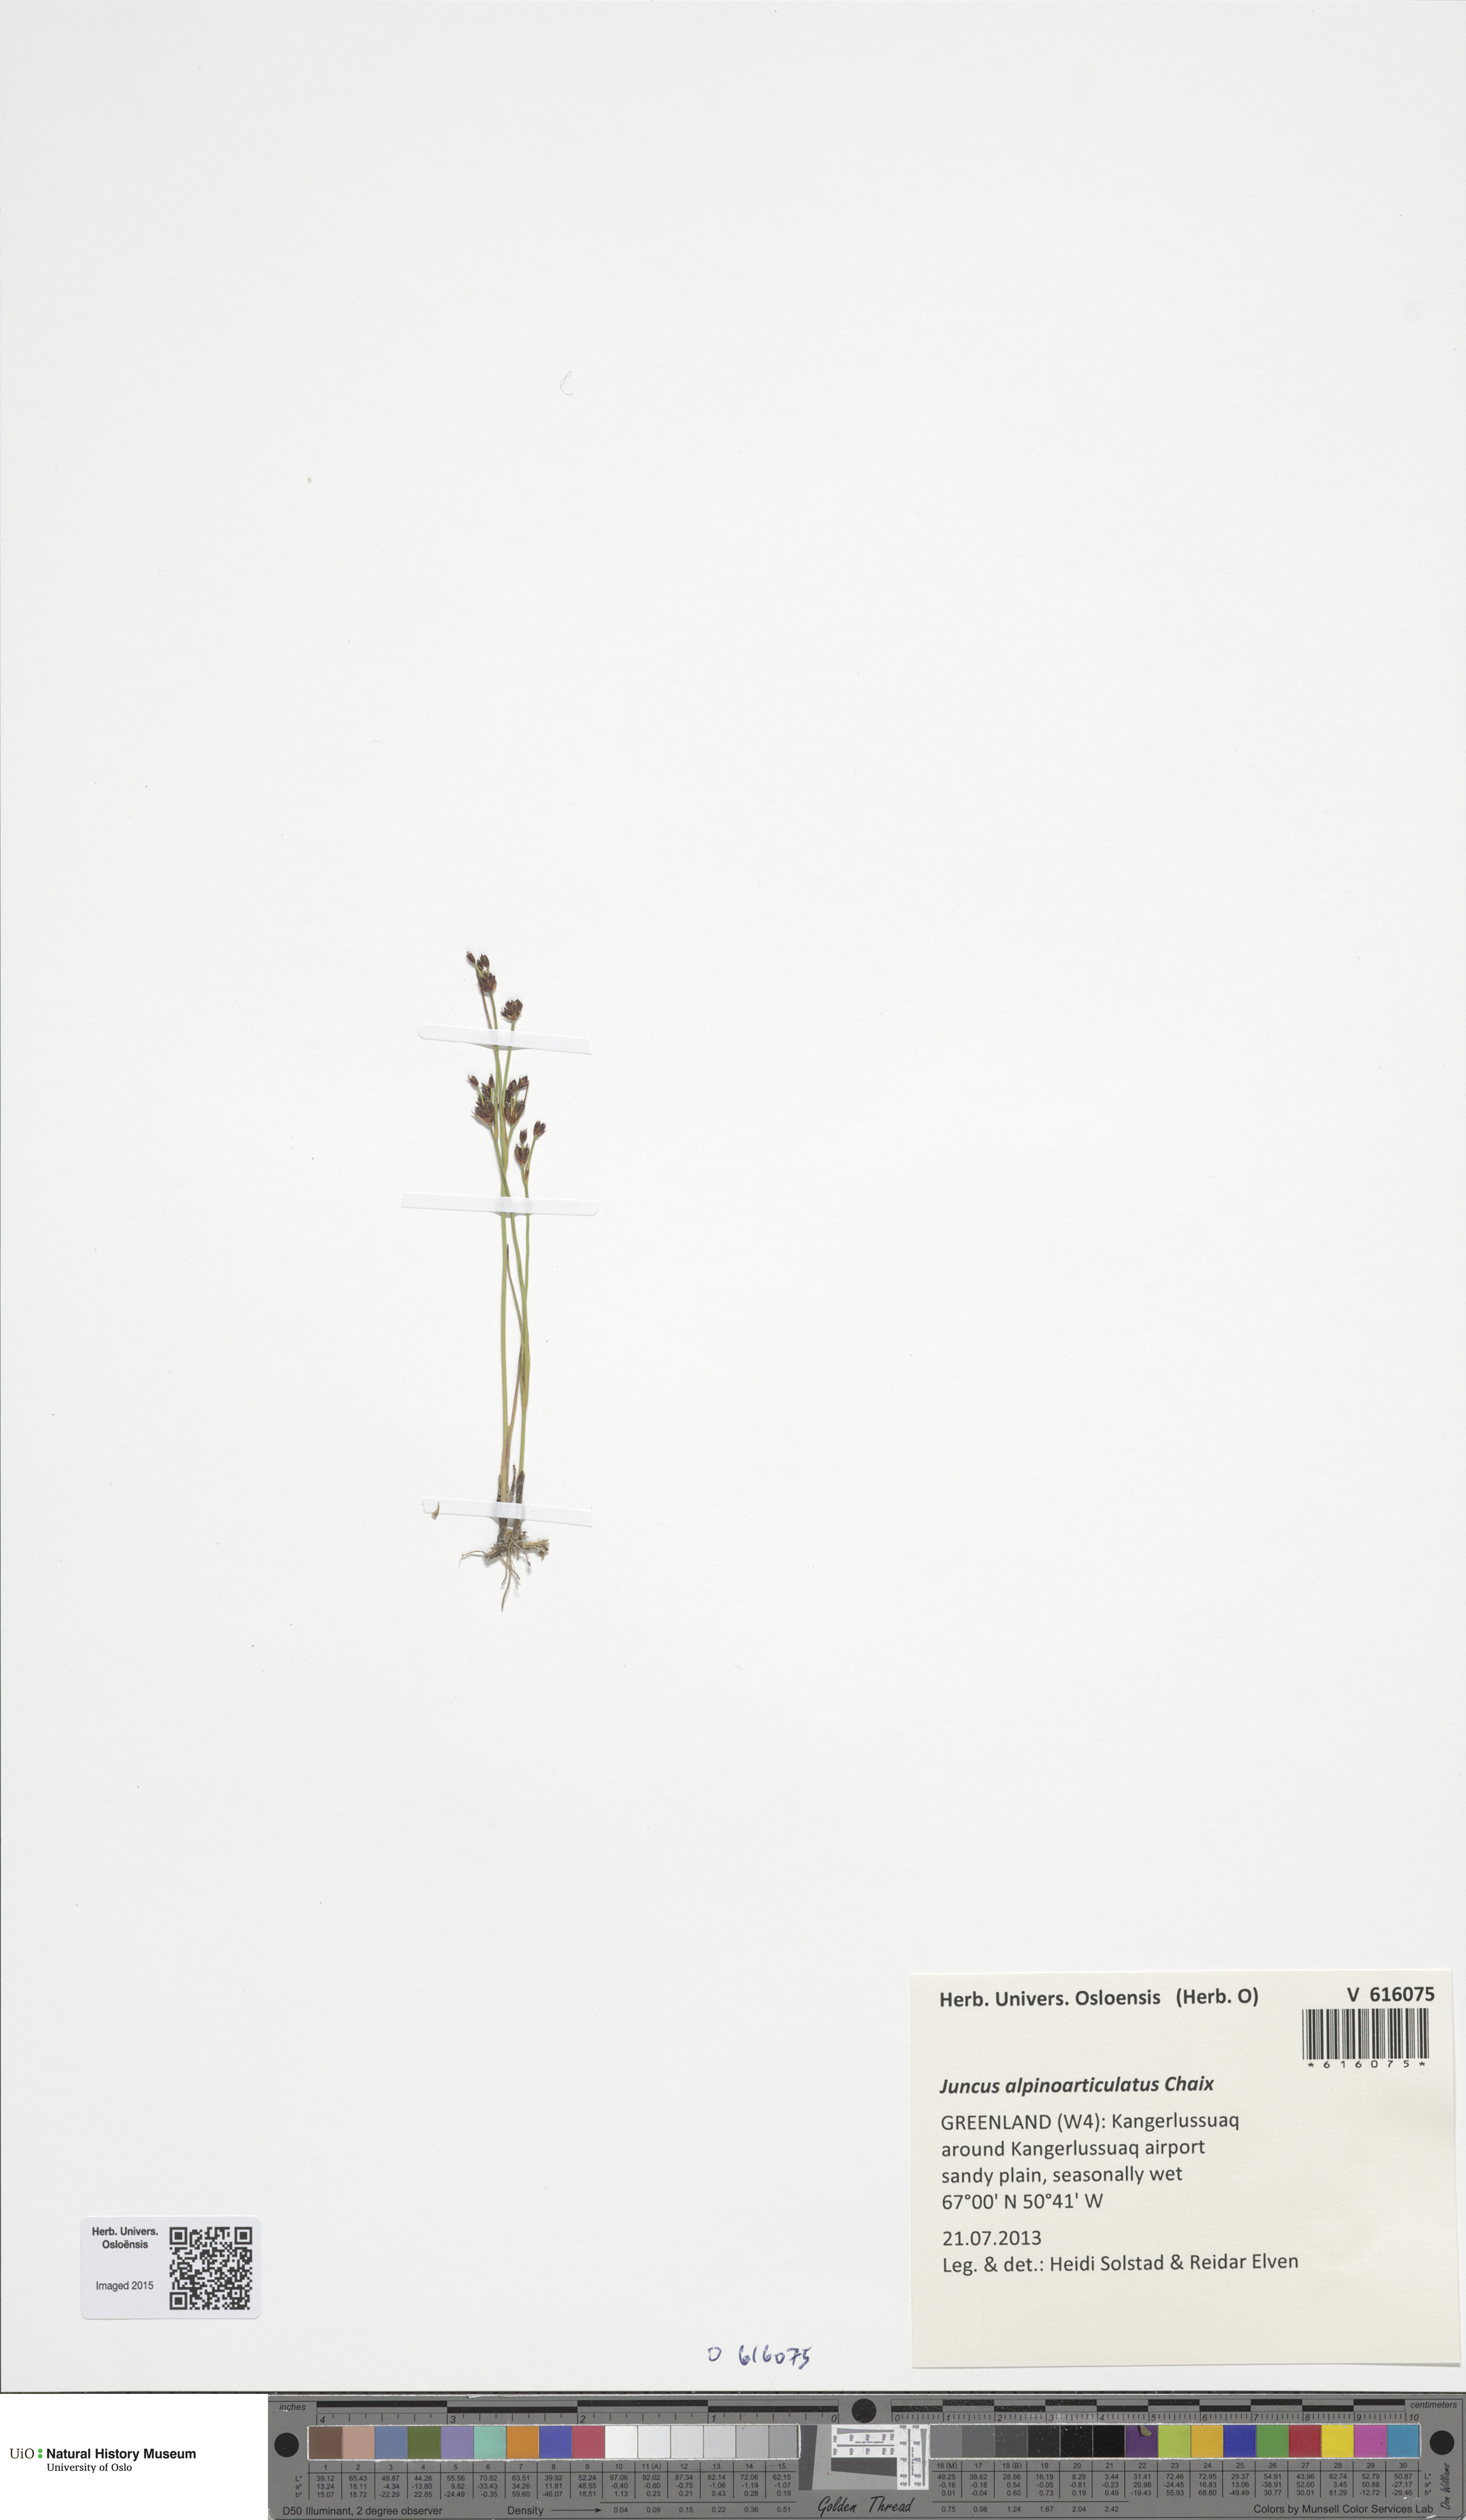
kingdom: Plantae
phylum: Tracheophyta
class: Liliopsida
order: Poales
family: Juncaceae
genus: Juncus
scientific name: Juncus alpinoarticulatus
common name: Alpine rush
